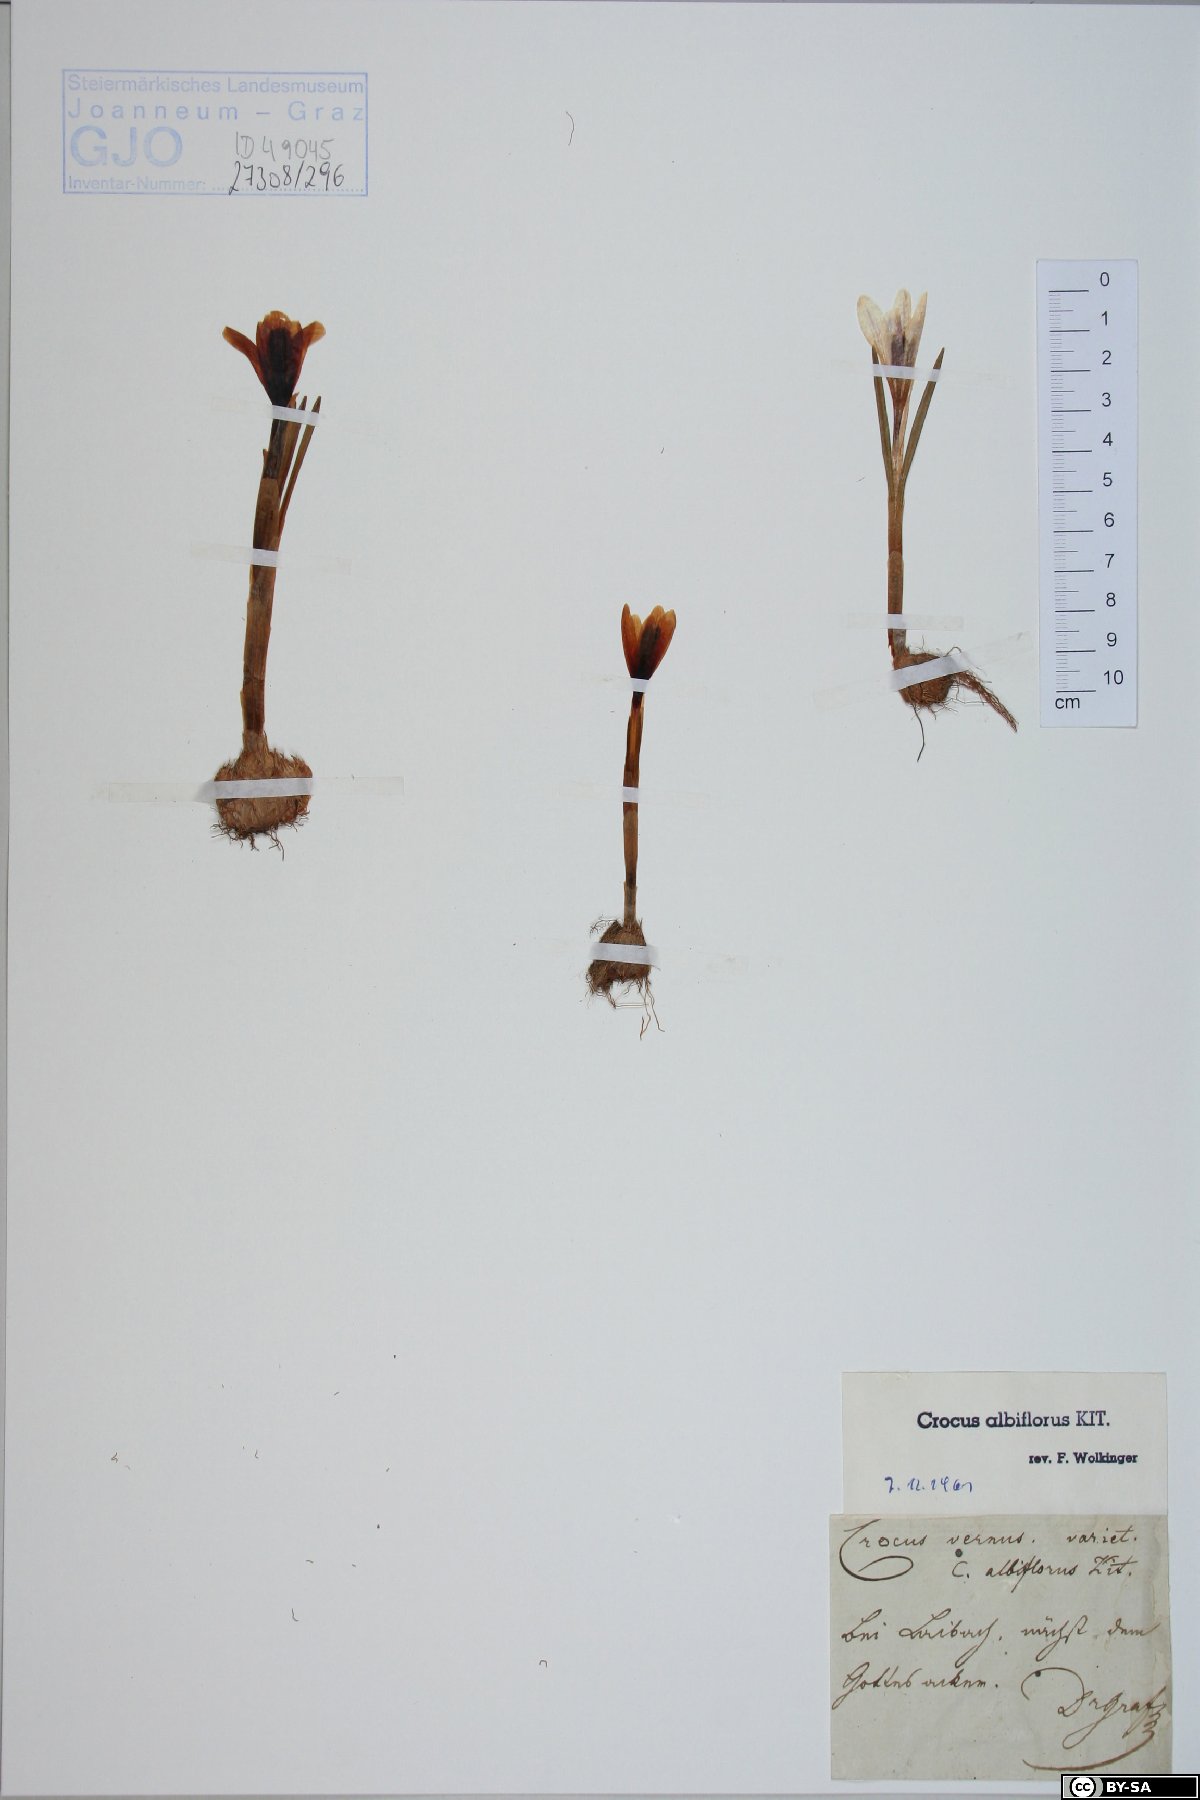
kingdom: Plantae
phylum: Tracheophyta
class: Liliopsida
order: Asparagales
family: Iridaceae
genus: Crocus
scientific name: Crocus vernus
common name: Spring crocus
